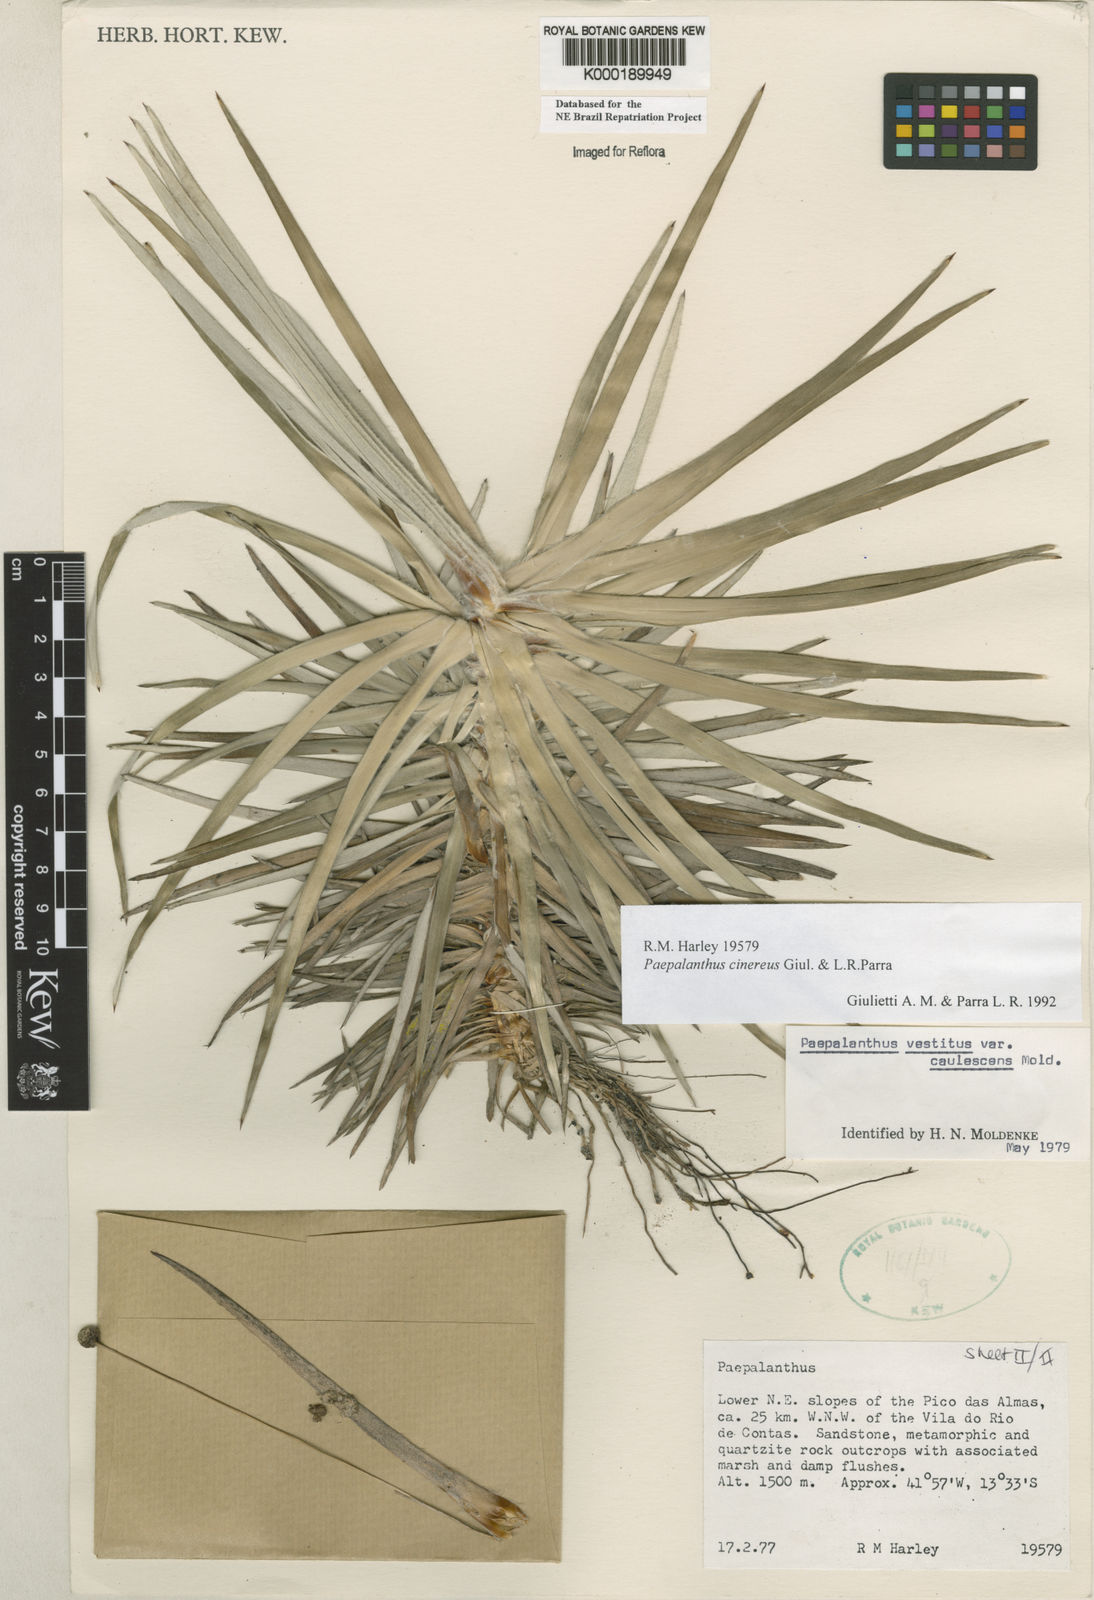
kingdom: Plantae
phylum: Tracheophyta
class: Liliopsida
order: Poales
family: Eriocaulaceae
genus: Paepalanthus
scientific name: Paepalanthus cinereus
